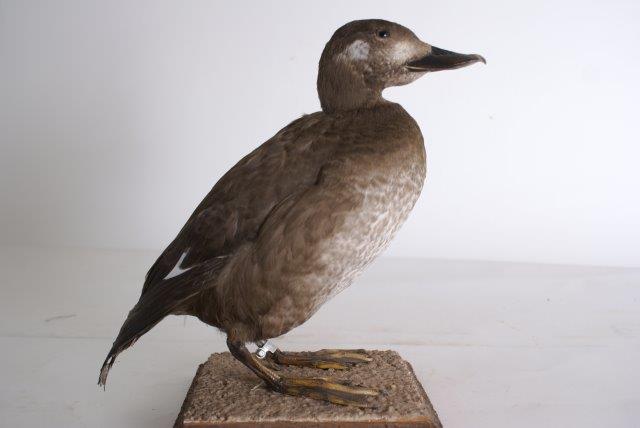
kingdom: Animalia
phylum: Chordata
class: Aves
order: Anseriformes
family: Anatidae
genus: Melanitta
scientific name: Melanitta fusca
